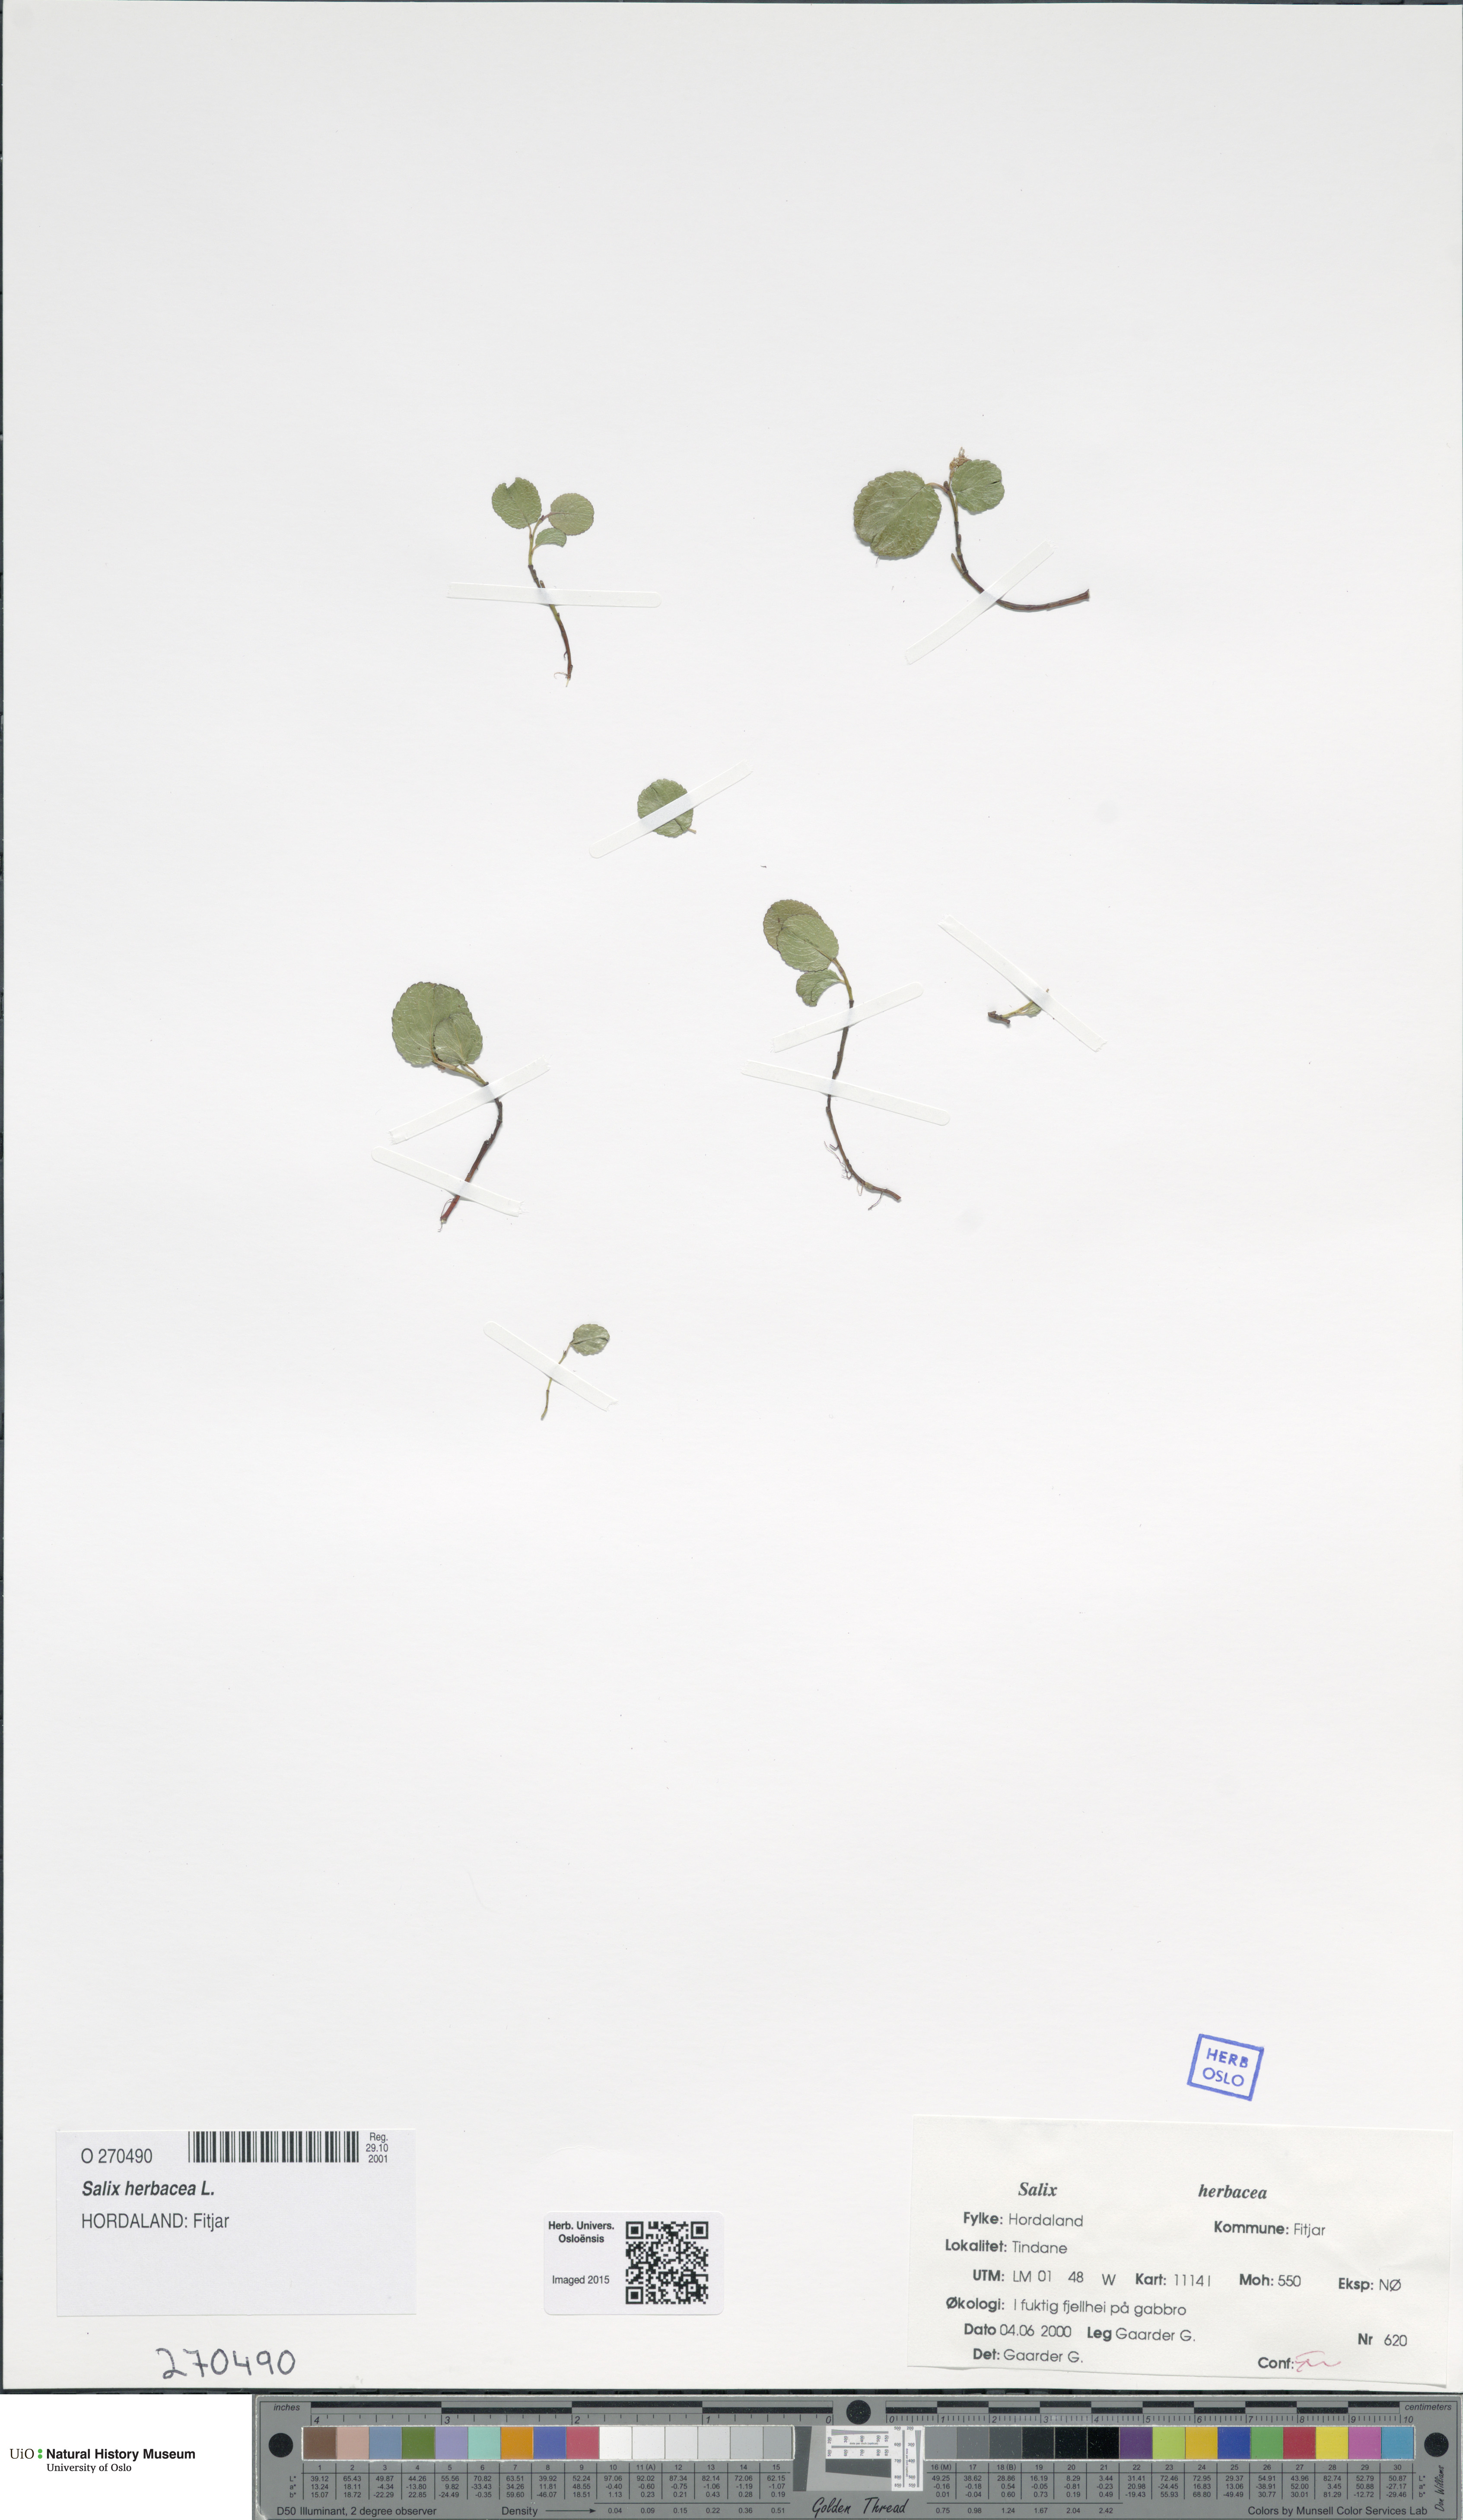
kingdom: Plantae
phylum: Tracheophyta
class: Magnoliopsida
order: Malpighiales
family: Salicaceae
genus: Salix
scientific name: Salix herbacea
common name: Dwarf willow
